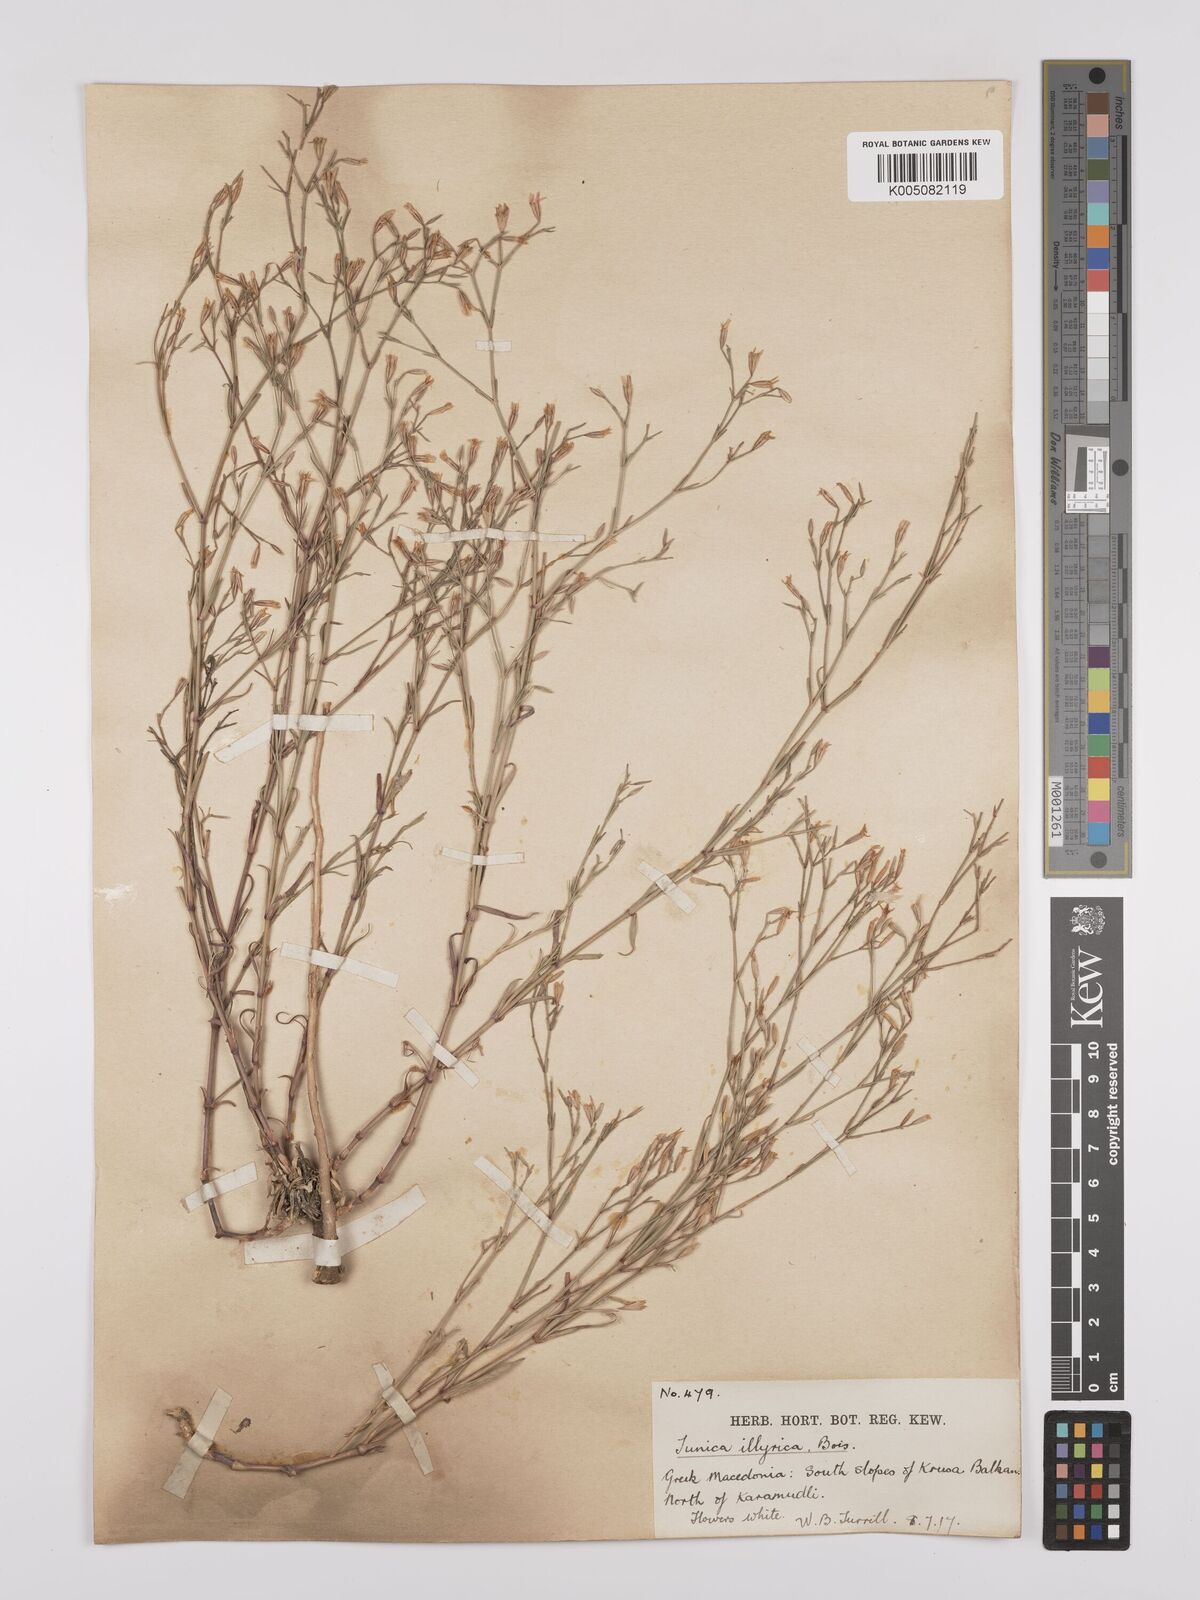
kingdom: Plantae
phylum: Tracheophyta
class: Magnoliopsida
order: Caryophyllales
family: Caryophyllaceae
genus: Dianthus
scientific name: Dianthus illyricus
